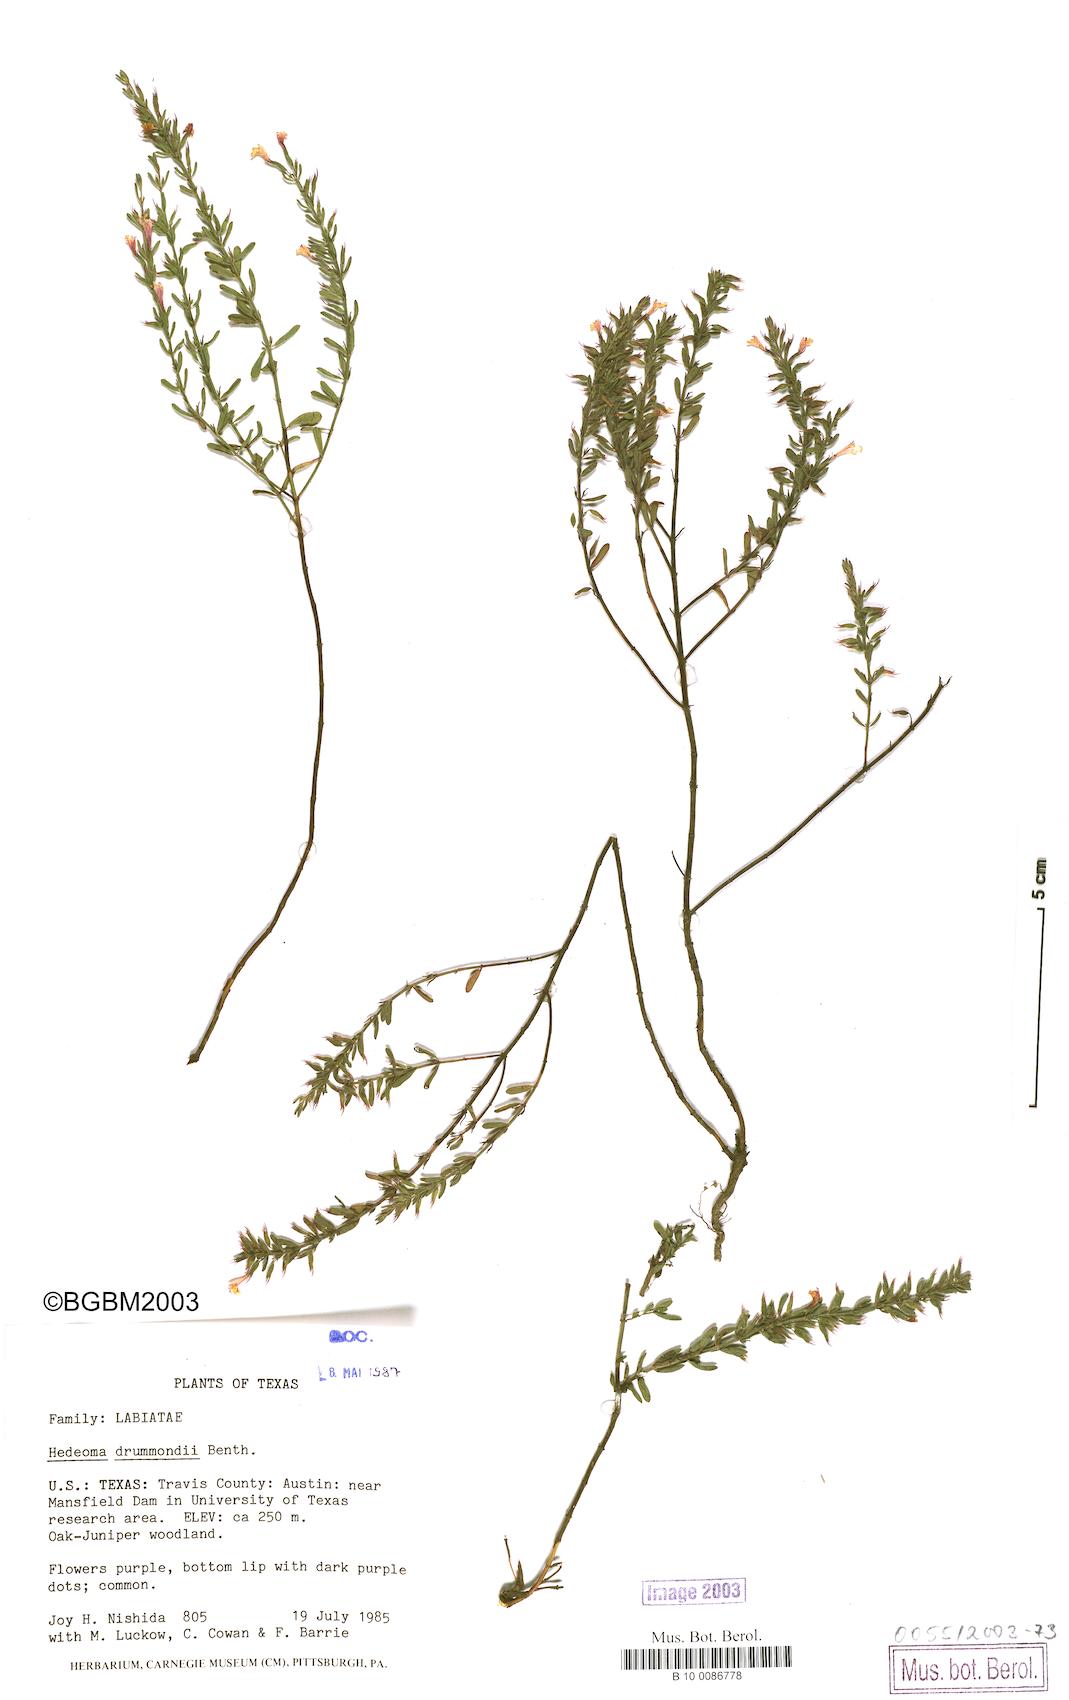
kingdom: Plantae
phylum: Tracheophyta
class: Magnoliopsida
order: Lamiales
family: Lamiaceae
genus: Hedeoma
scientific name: Hedeoma drummondii
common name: New mexico pennyroyal
